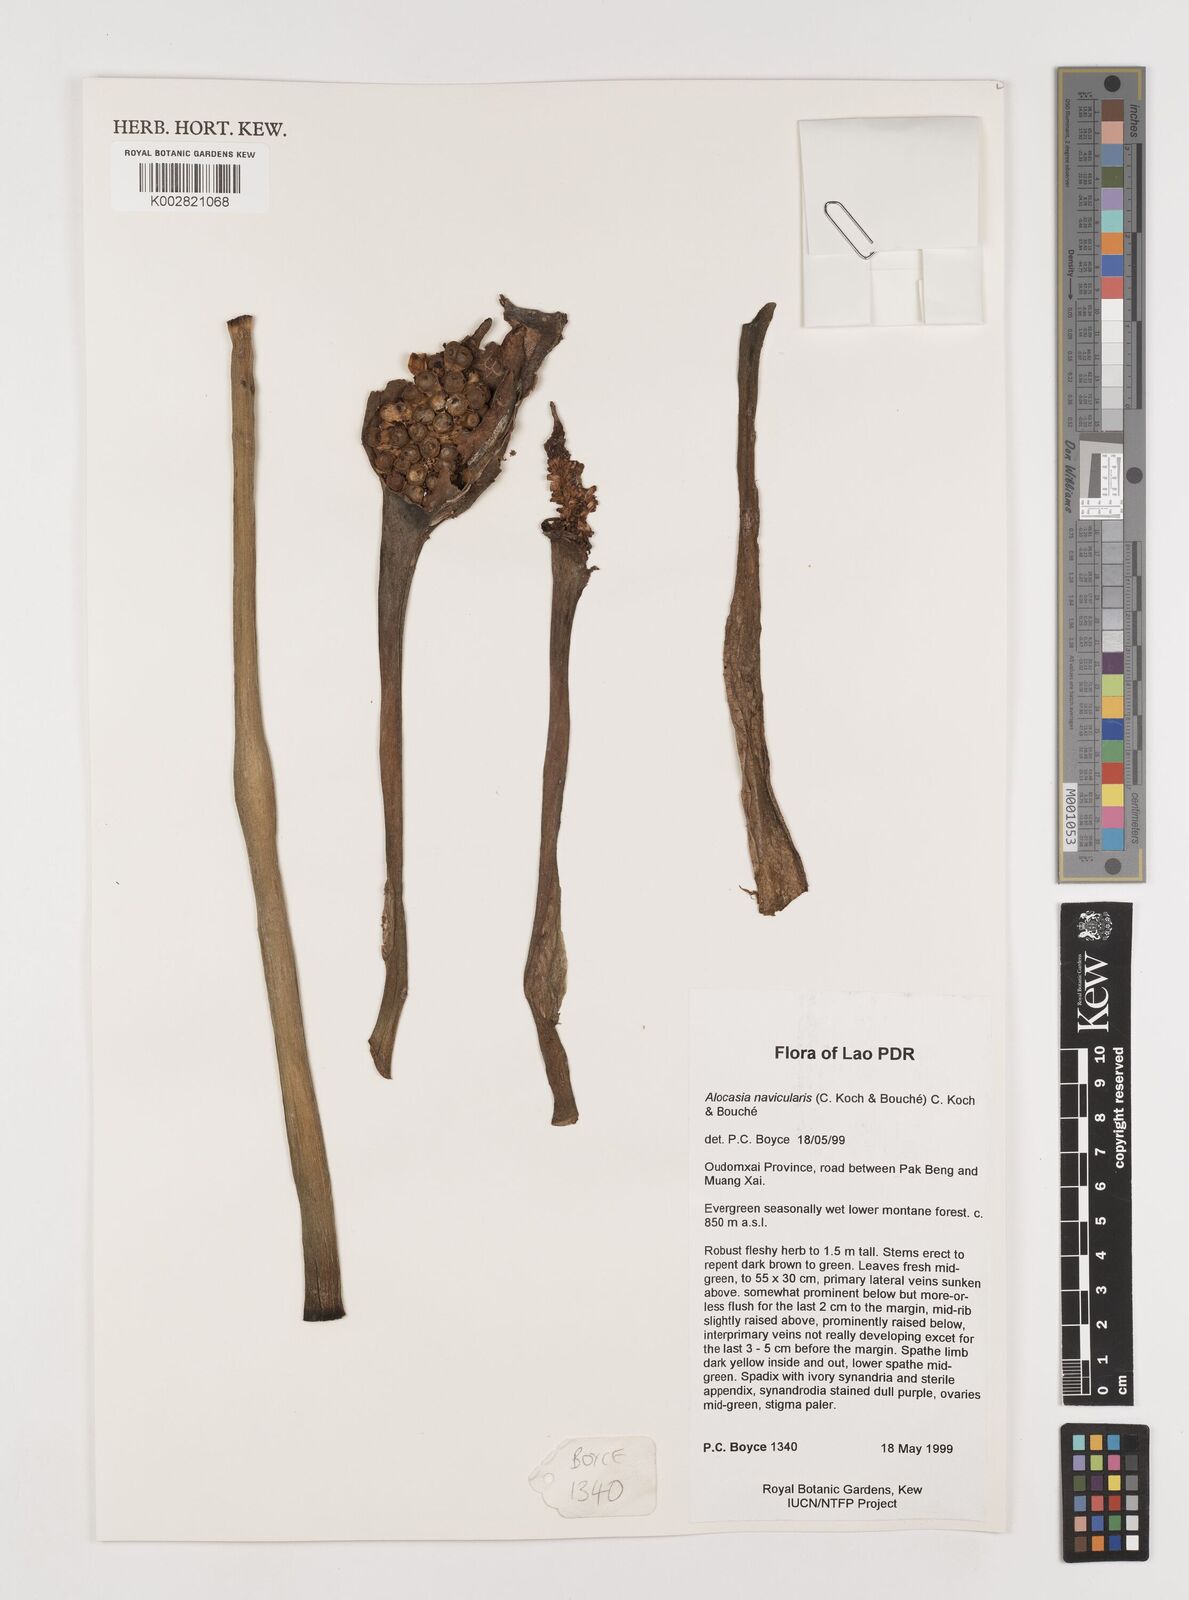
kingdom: Plantae
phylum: Tracheophyta
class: Liliopsida
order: Alismatales
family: Araceae
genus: Alocasia
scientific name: Alocasia navicularis
